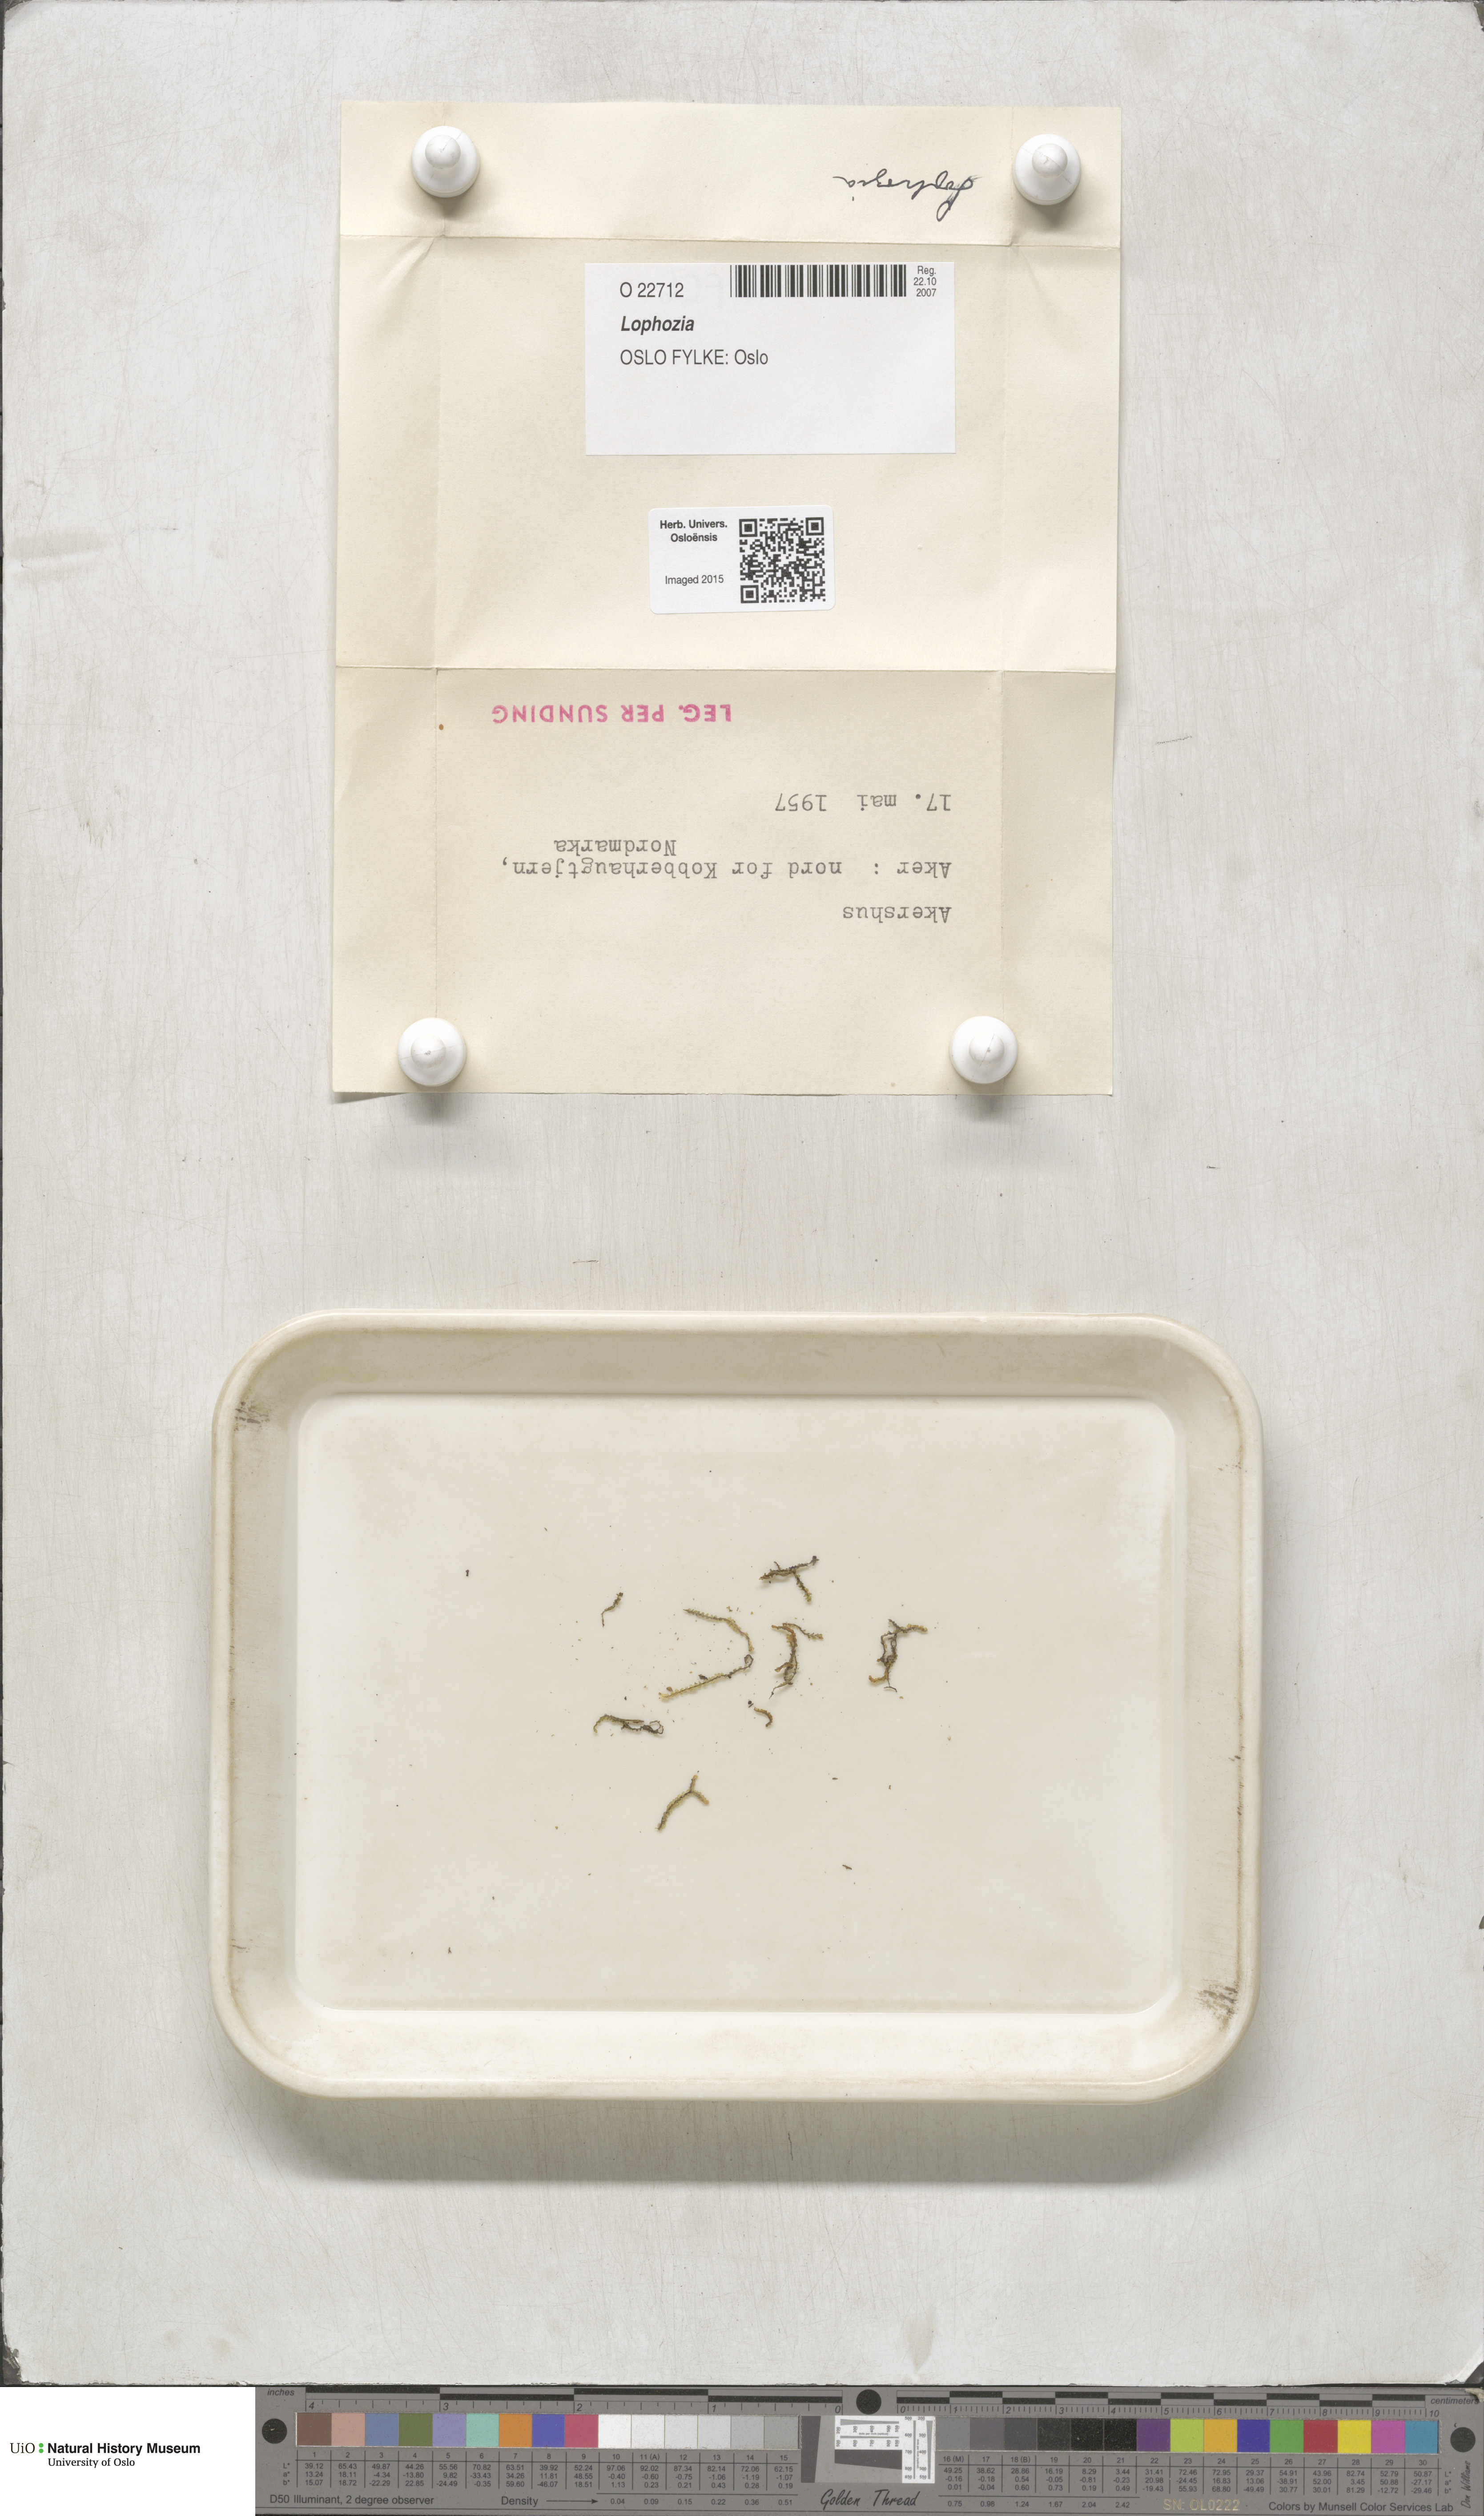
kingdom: Plantae
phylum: Marchantiophyta
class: Jungermanniopsida
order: Jungermanniales
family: Lophoziaceae
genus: Lophozia
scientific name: Lophozia
